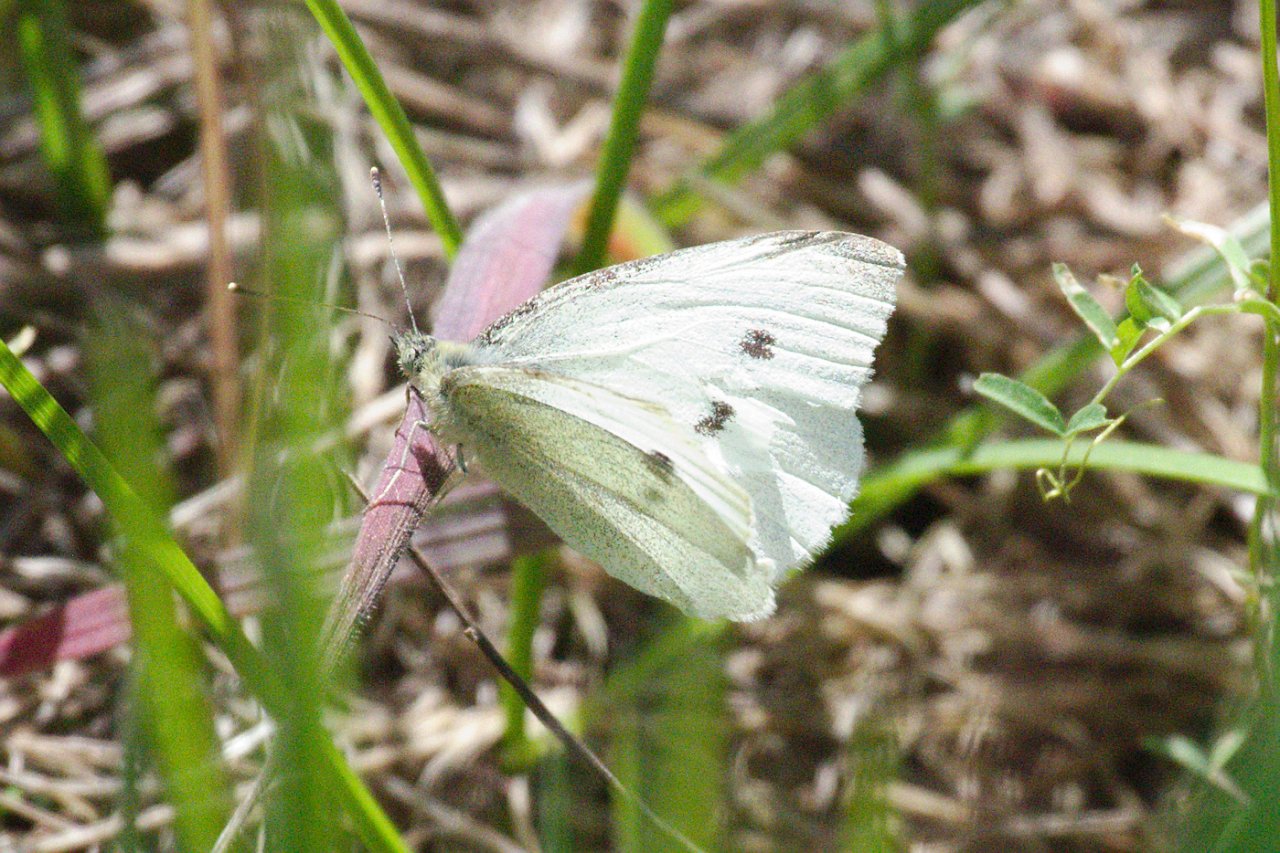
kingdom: Animalia
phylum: Arthropoda
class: Insecta
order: Lepidoptera
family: Pieridae
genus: Pieris
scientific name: Pieris rapae
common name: Cabbage White
